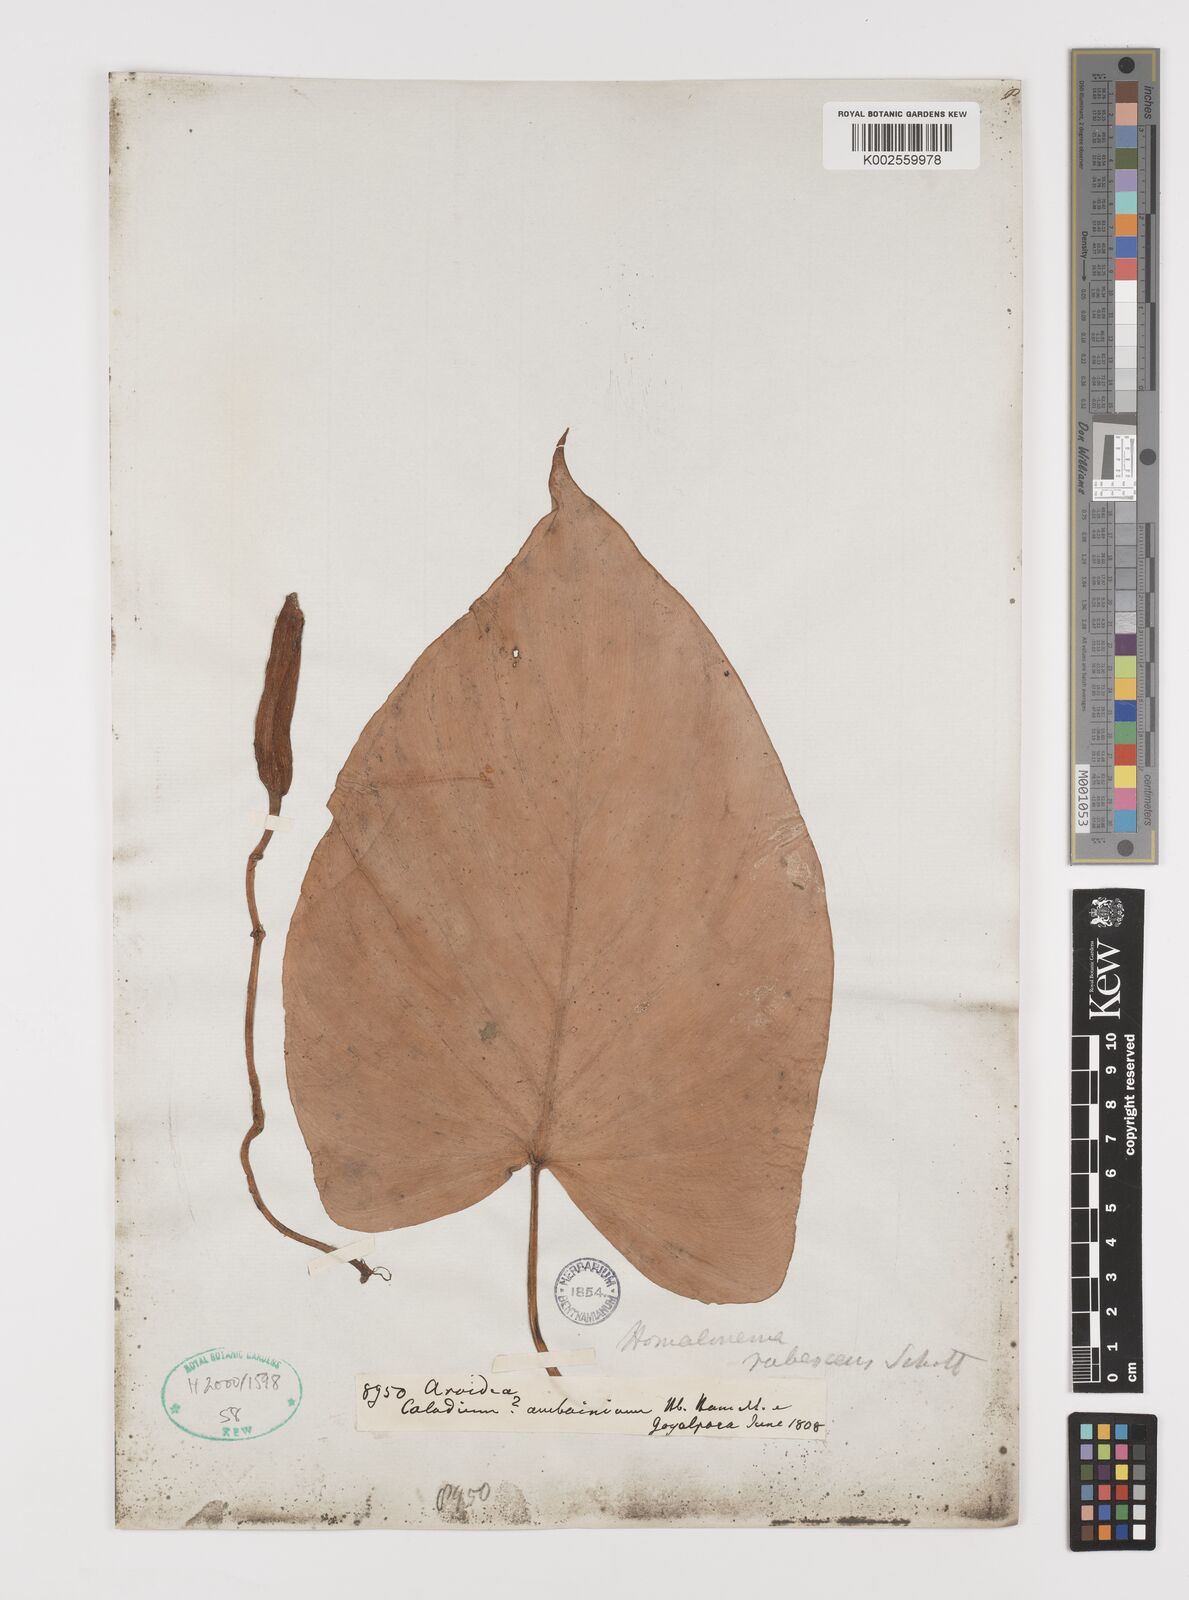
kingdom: Plantae
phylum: Tracheophyta
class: Liliopsida
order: Alismatales
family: Araceae
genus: Homalomena
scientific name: Homalomena rubescens
